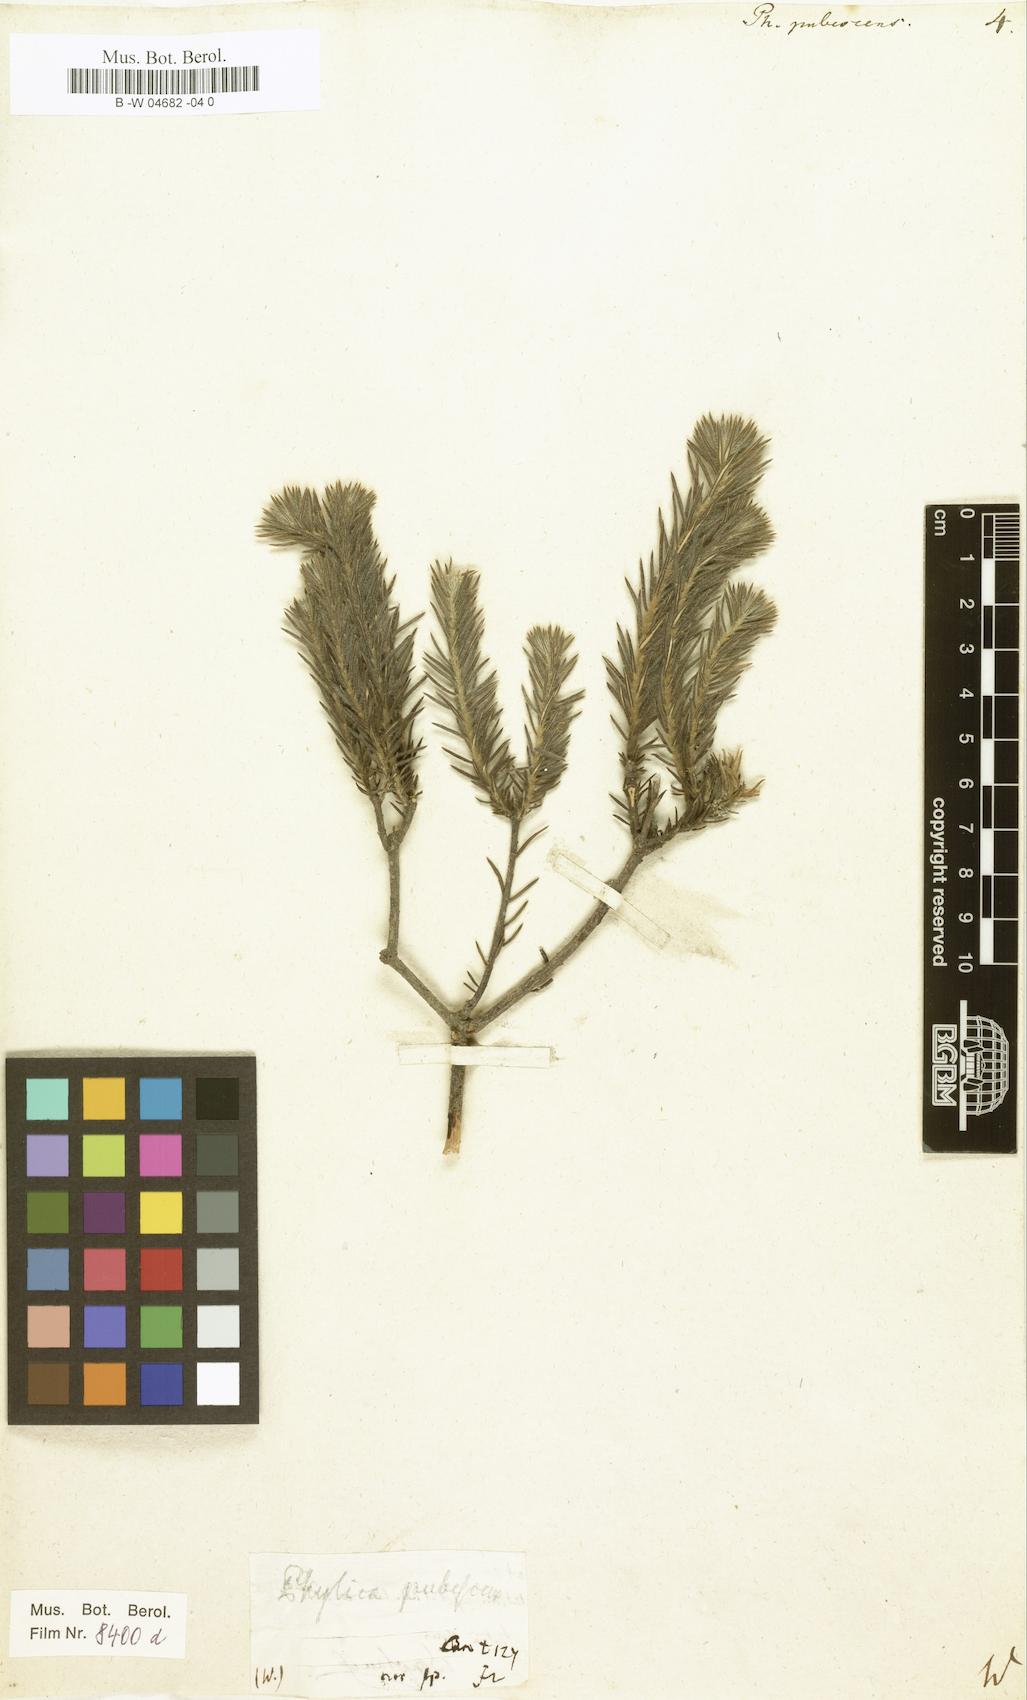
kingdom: Plantae
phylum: Tracheophyta
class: Magnoliopsida
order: Rosales
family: Rhamnaceae
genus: Phylica
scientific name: Phylica pubescens
